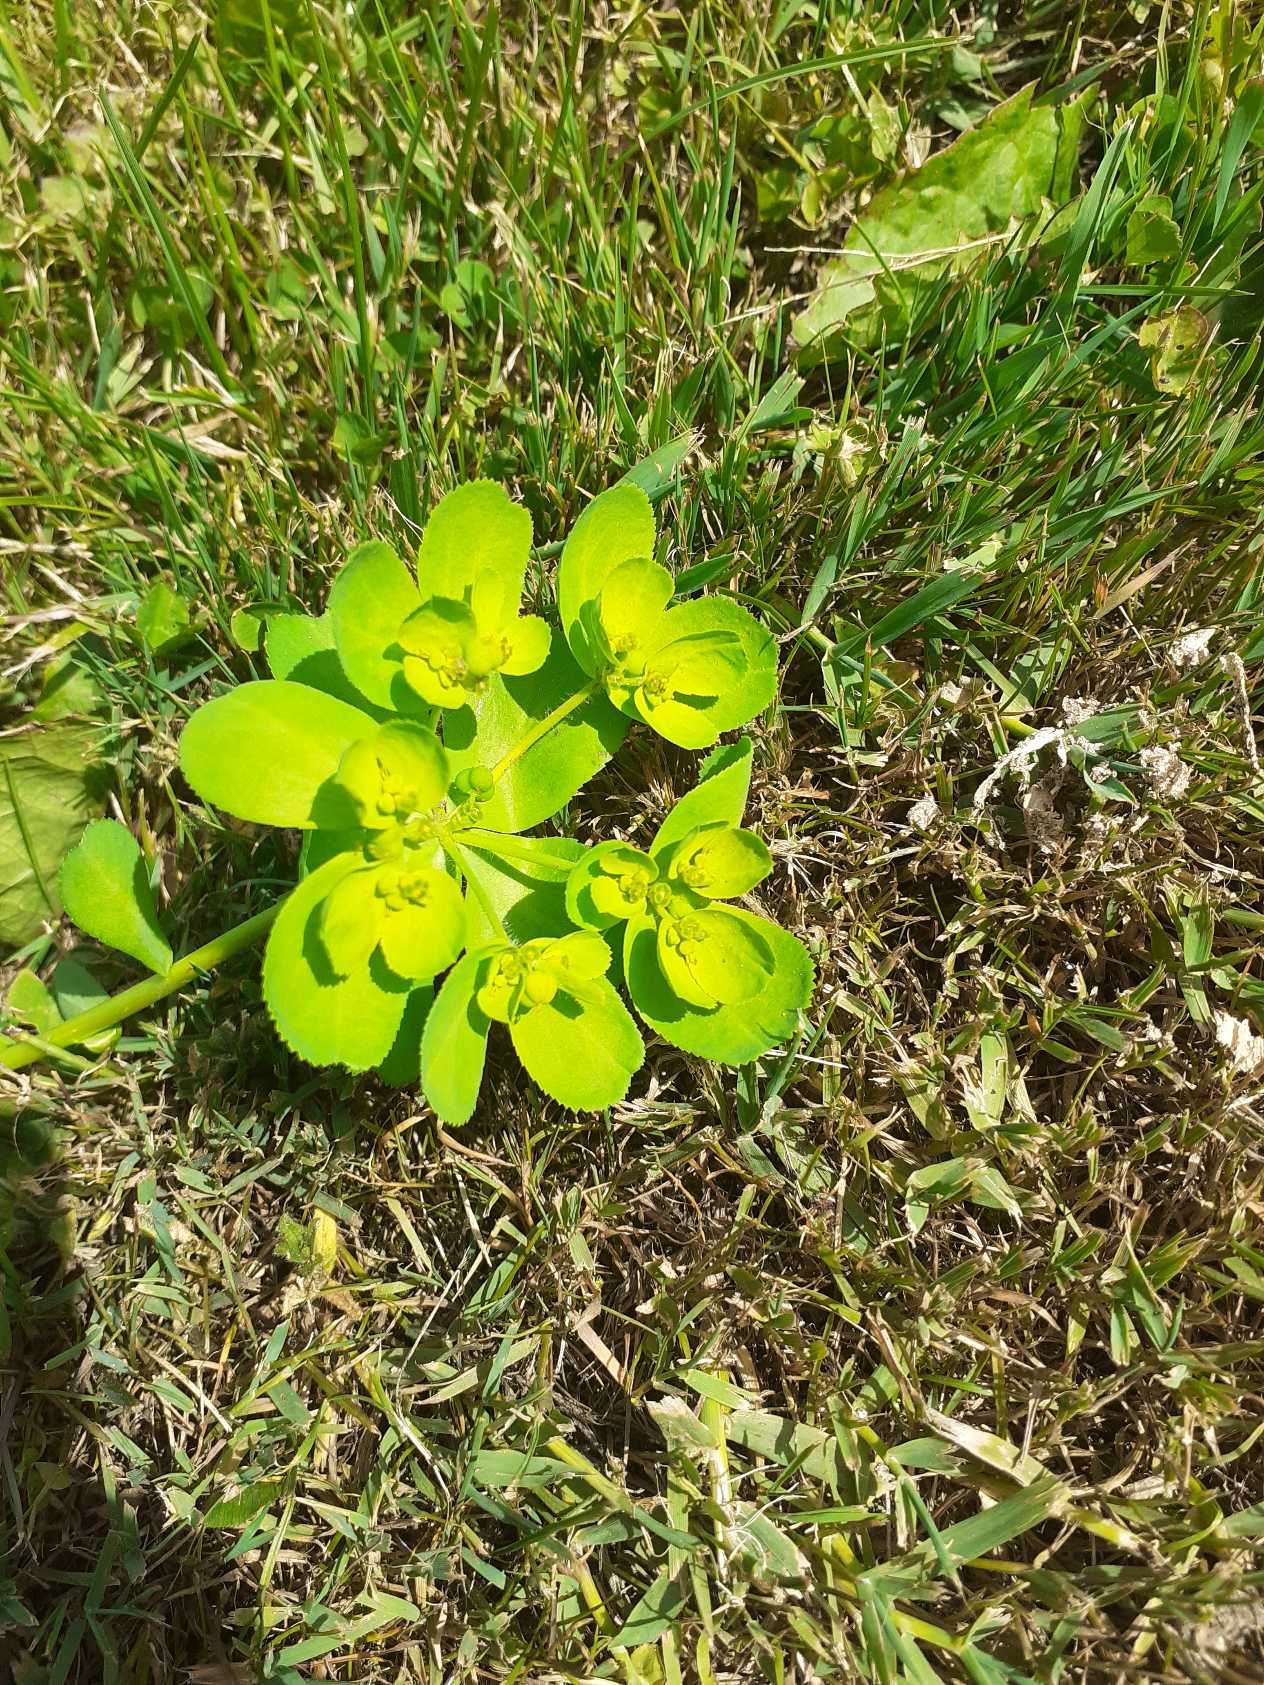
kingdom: Plantae
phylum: Tracheophyta
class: Magnoliopsida
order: Malpighiales
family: Euphorbiaceae
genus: Euphorbia
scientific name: Euphorbia helioscopia
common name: Skærm-vortemælk
